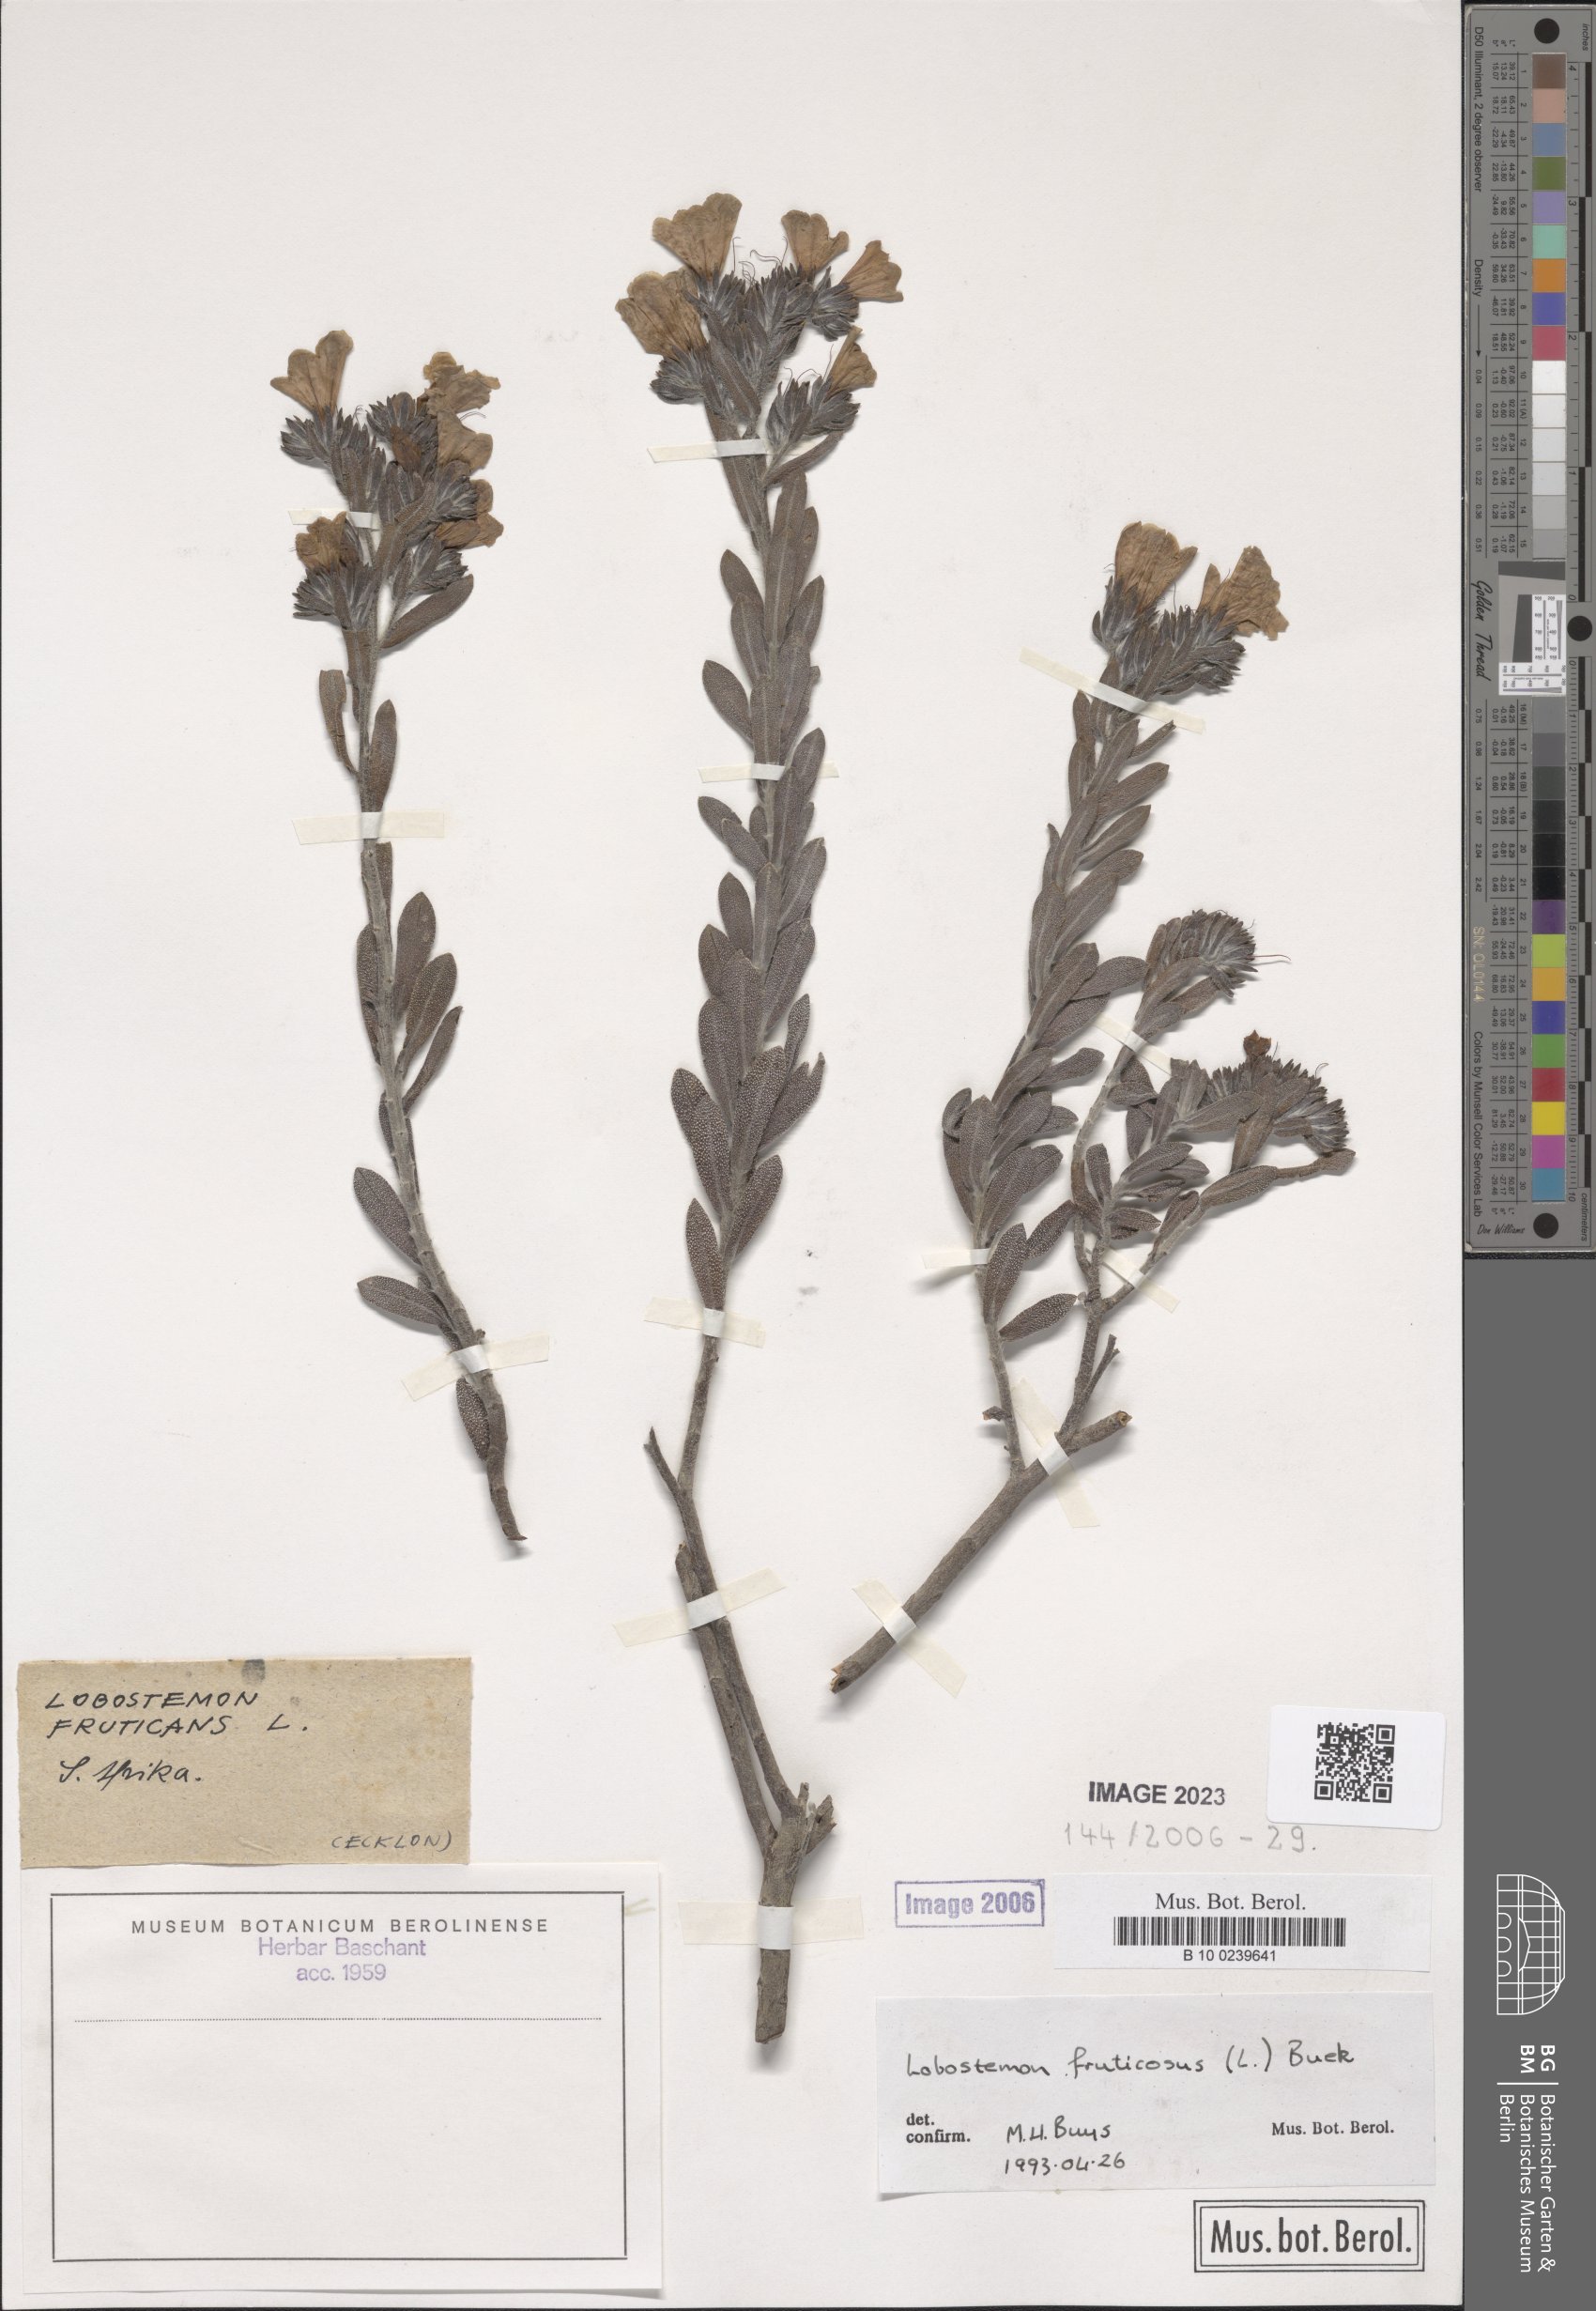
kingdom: Plantae
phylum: Tracheophyta
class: Magnoliopsida
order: Boraginales
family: Boraginaceae
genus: Lobostemon
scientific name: Lobostemon fruticosus
